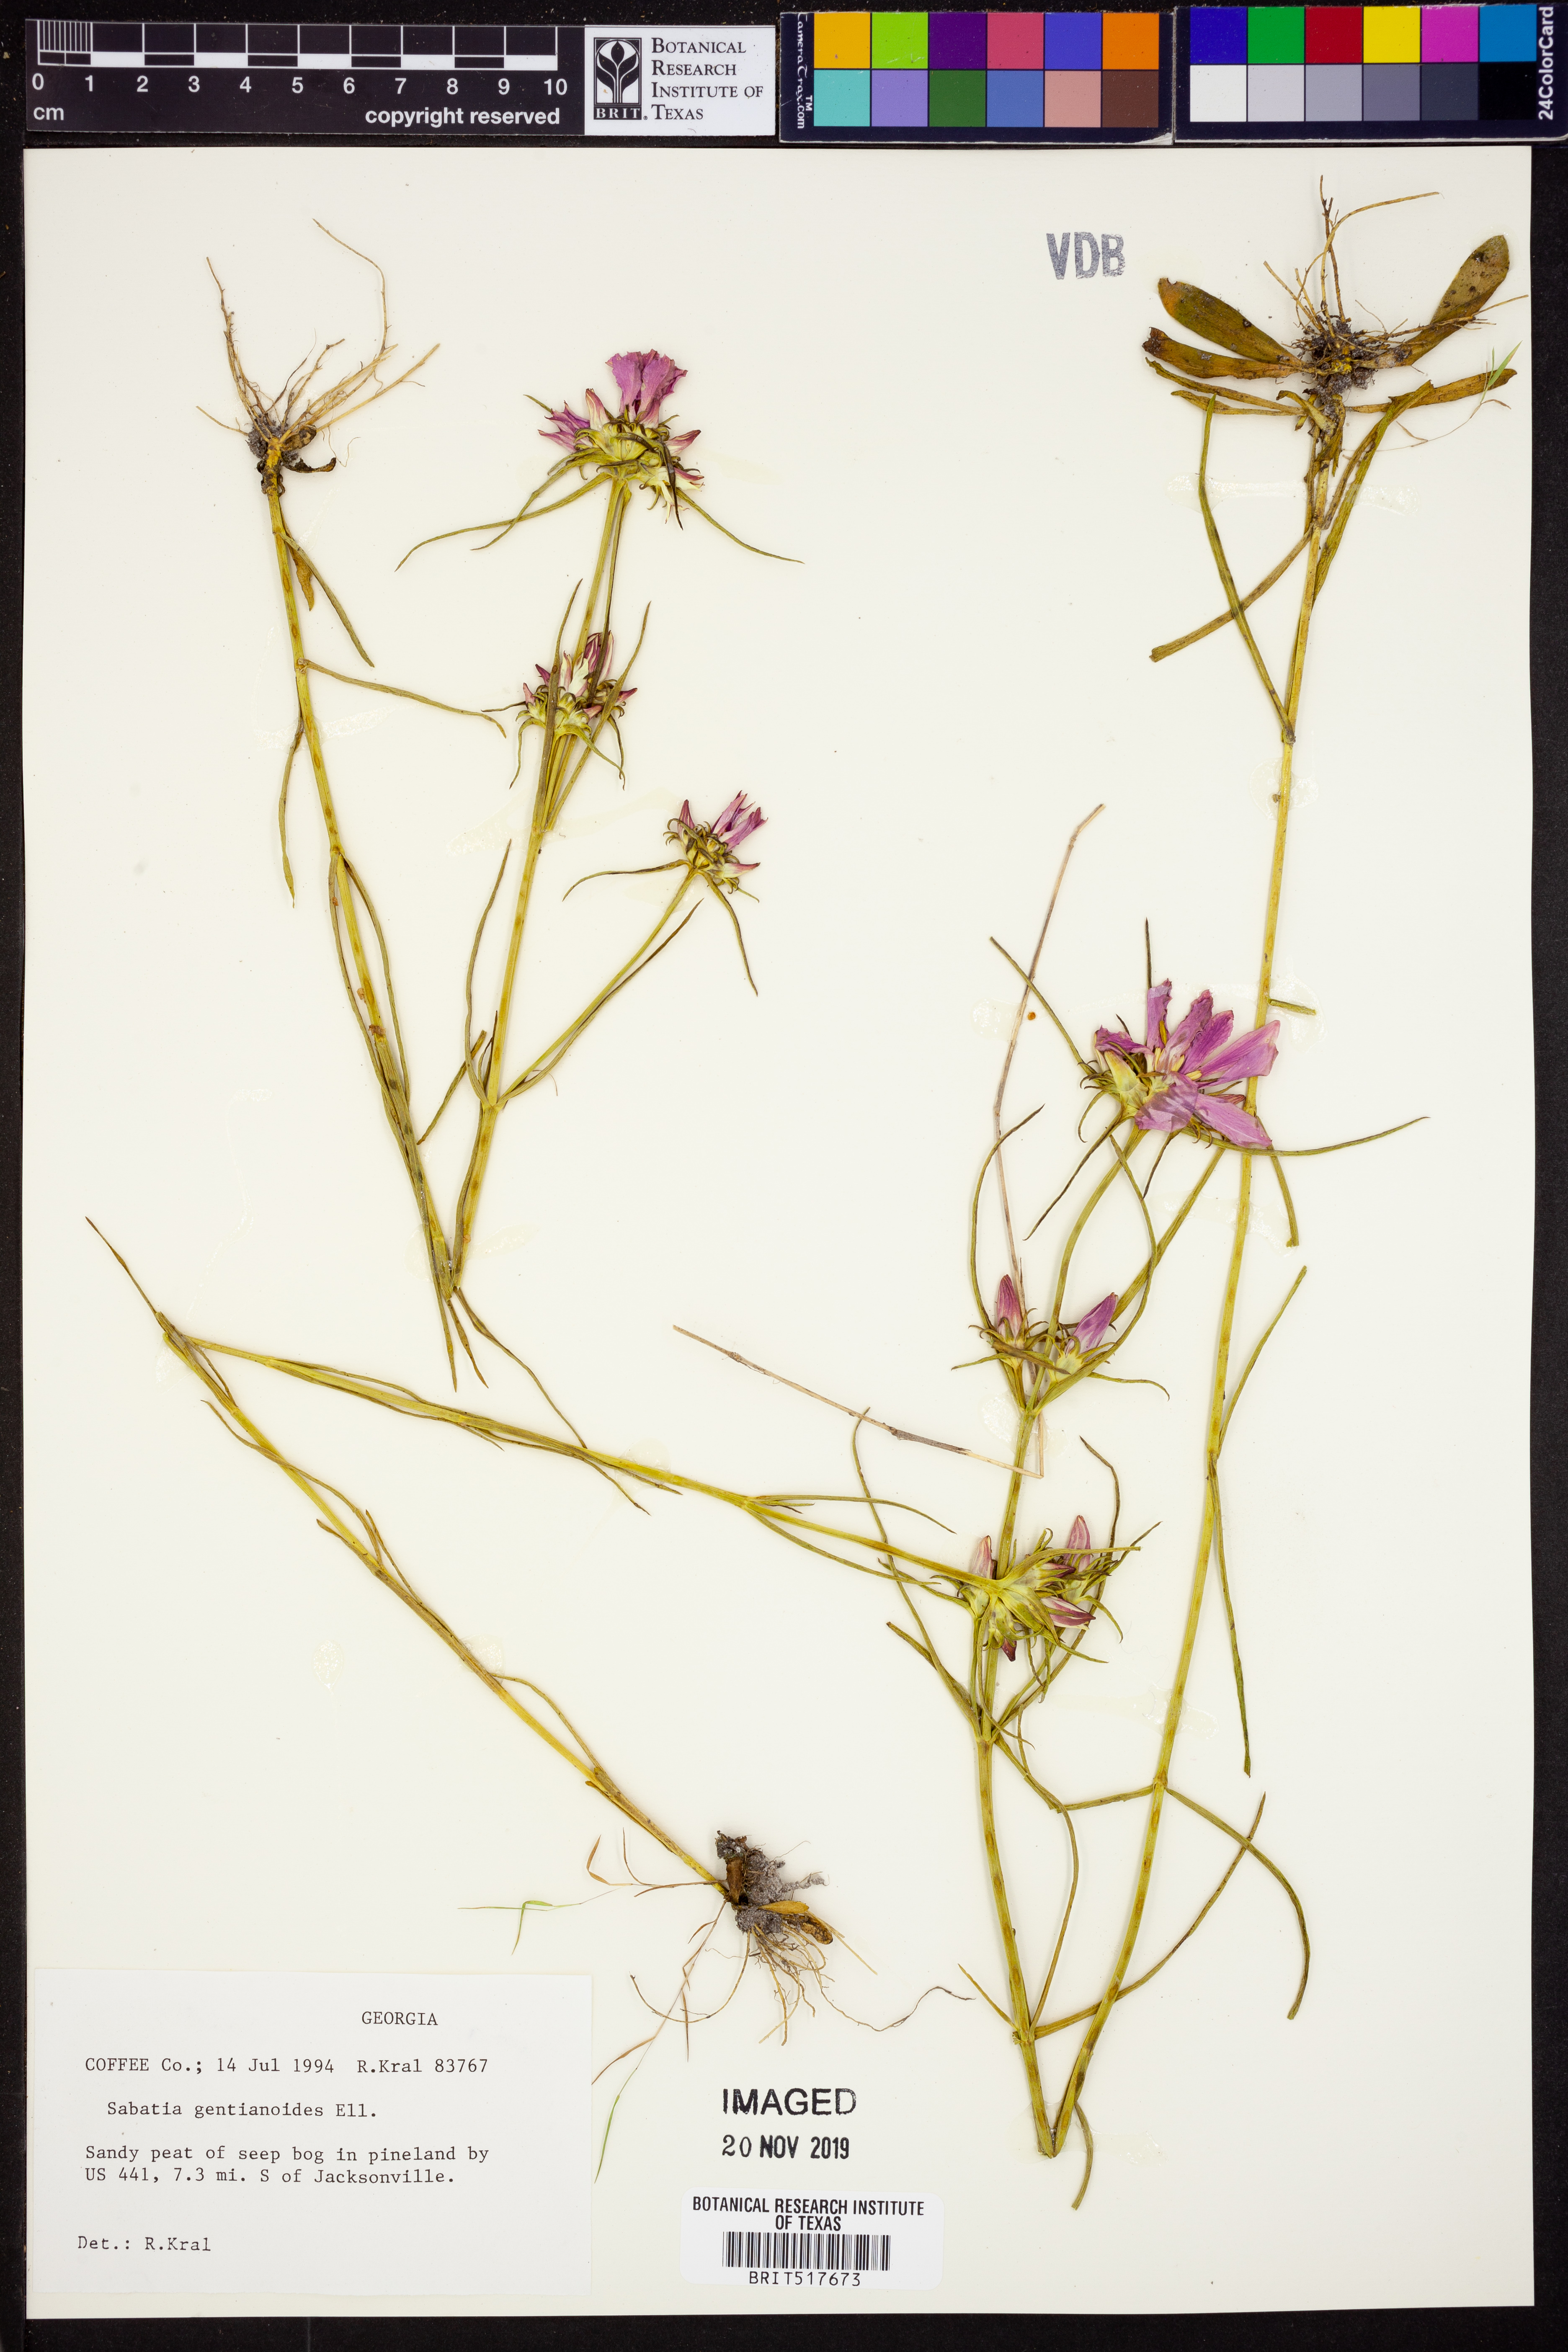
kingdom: Plantae
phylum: Tracheophyta
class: Magnoliopsida
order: Gentianales
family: Gentianaceae
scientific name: Gentianaceae
